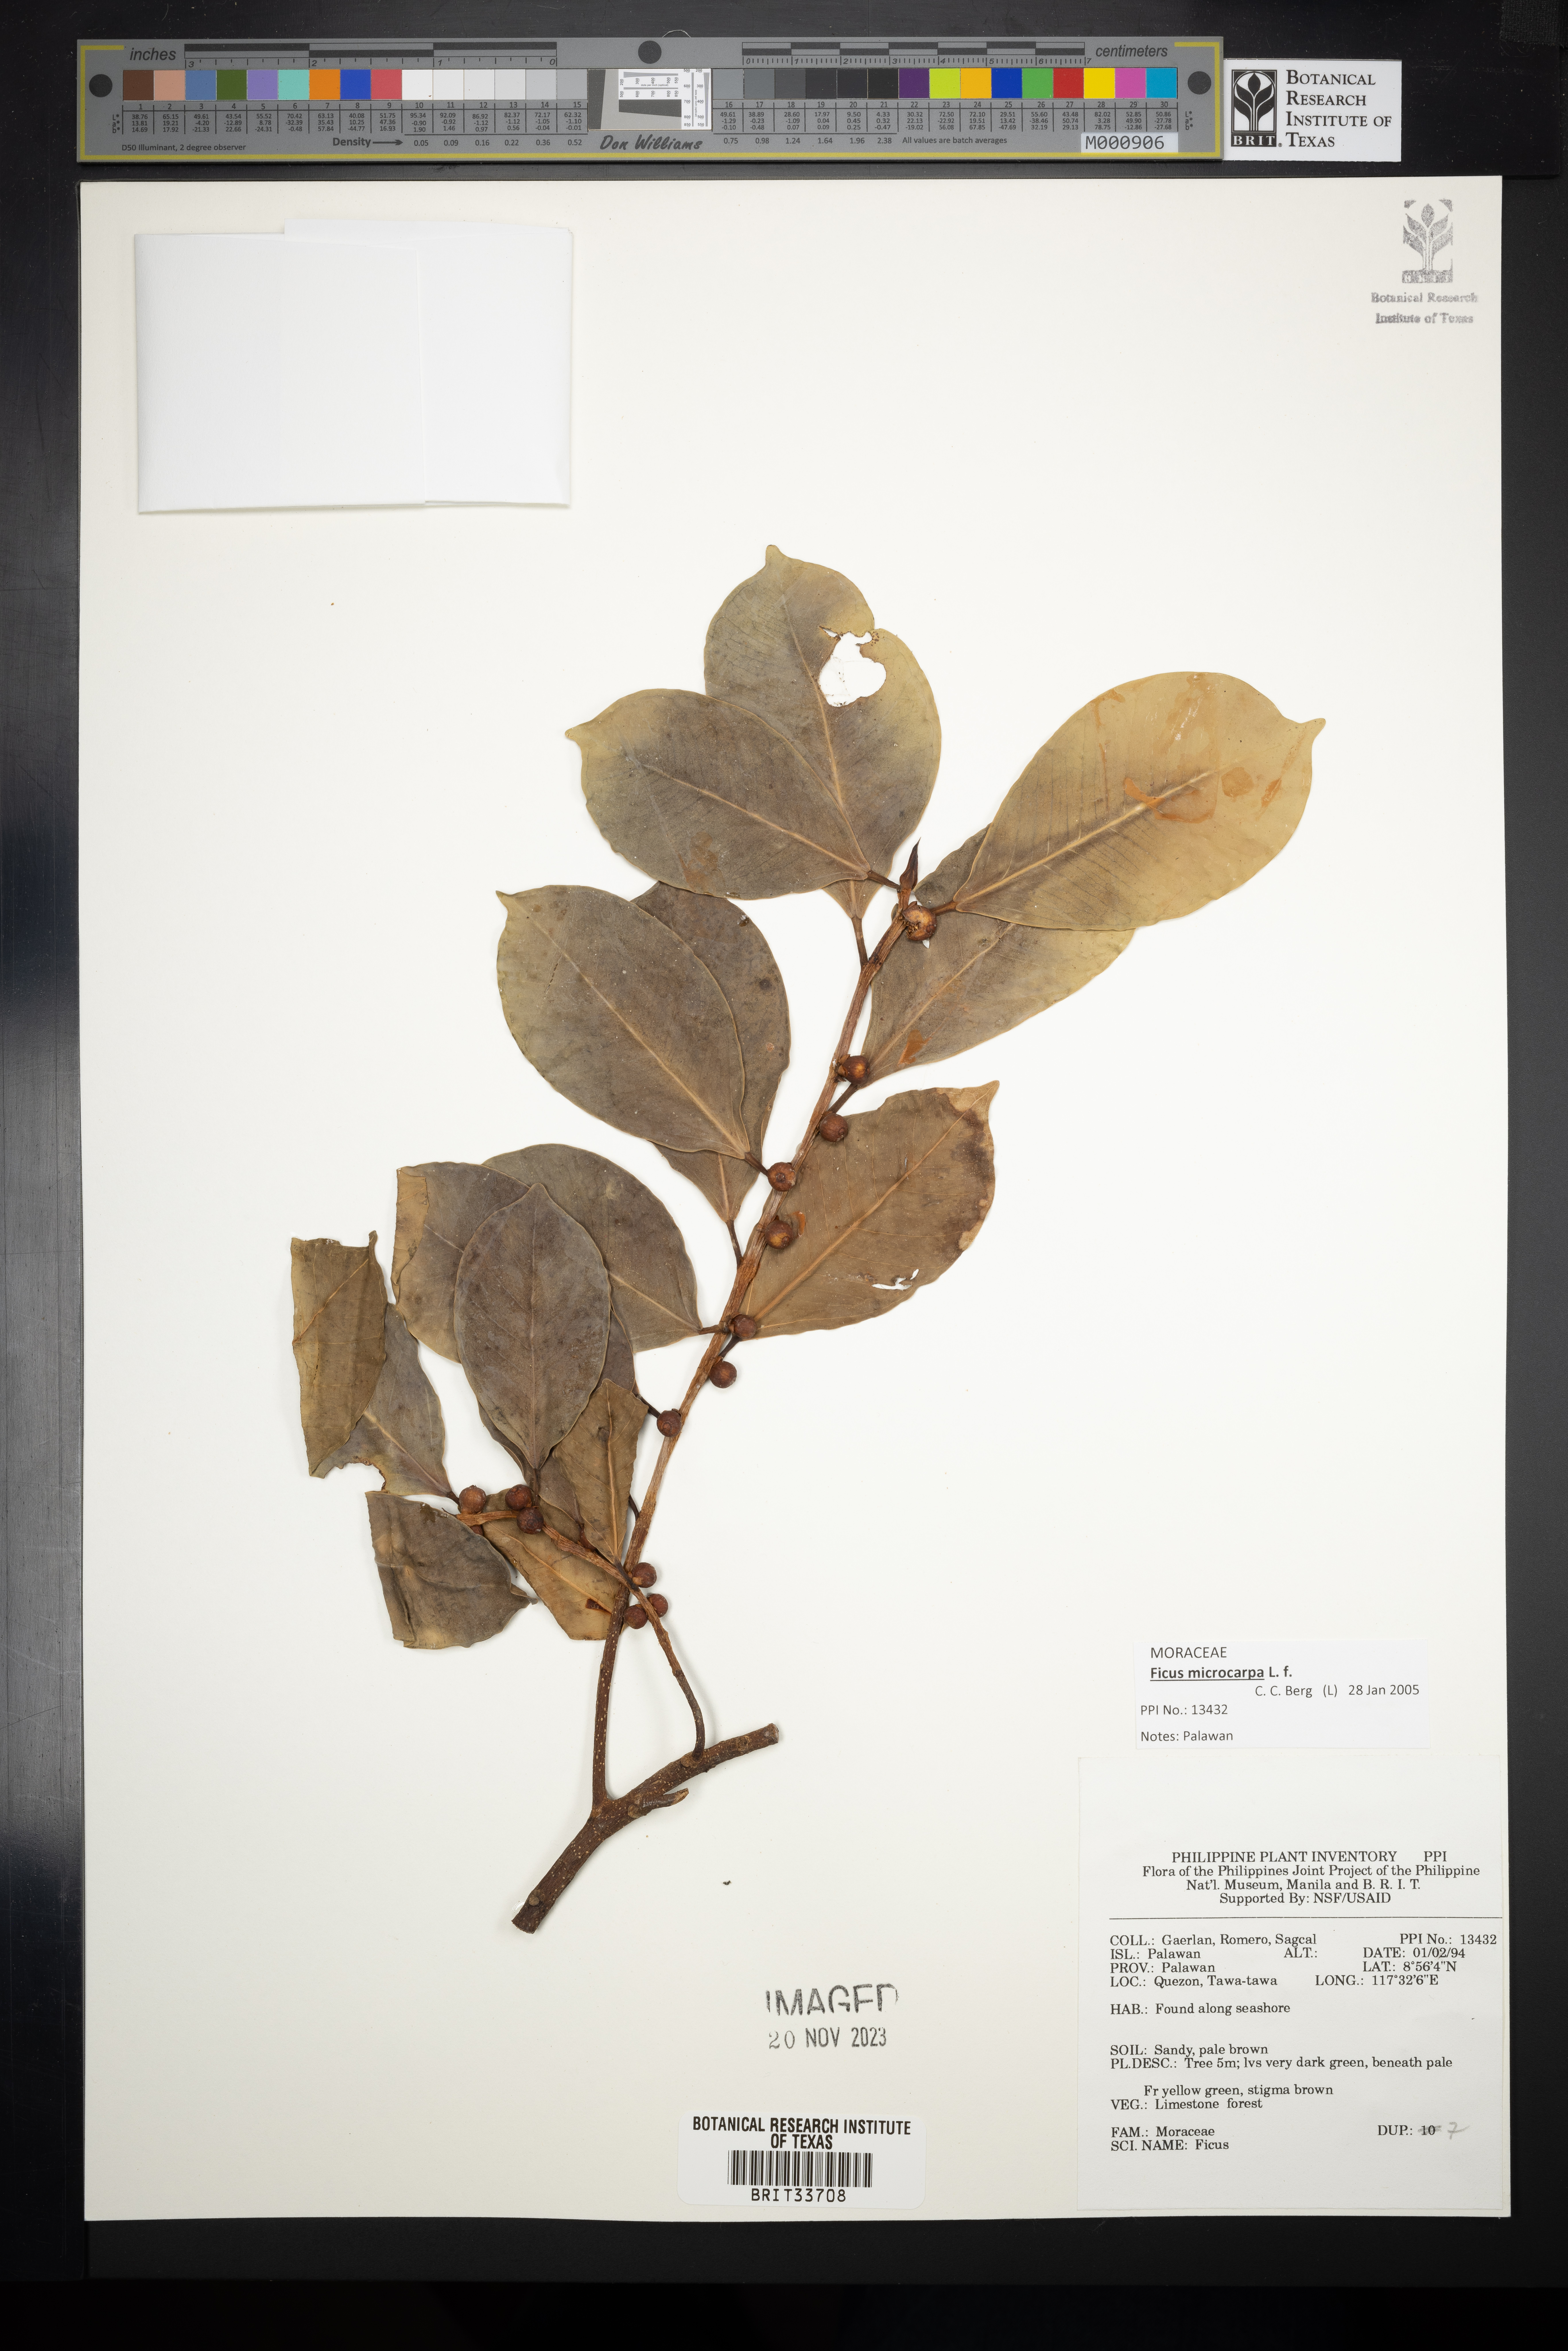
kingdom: Plantae
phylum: Tracheophyta
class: Magnoliopsida
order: Rosales
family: Moraceae
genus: Ficus
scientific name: Ficus
